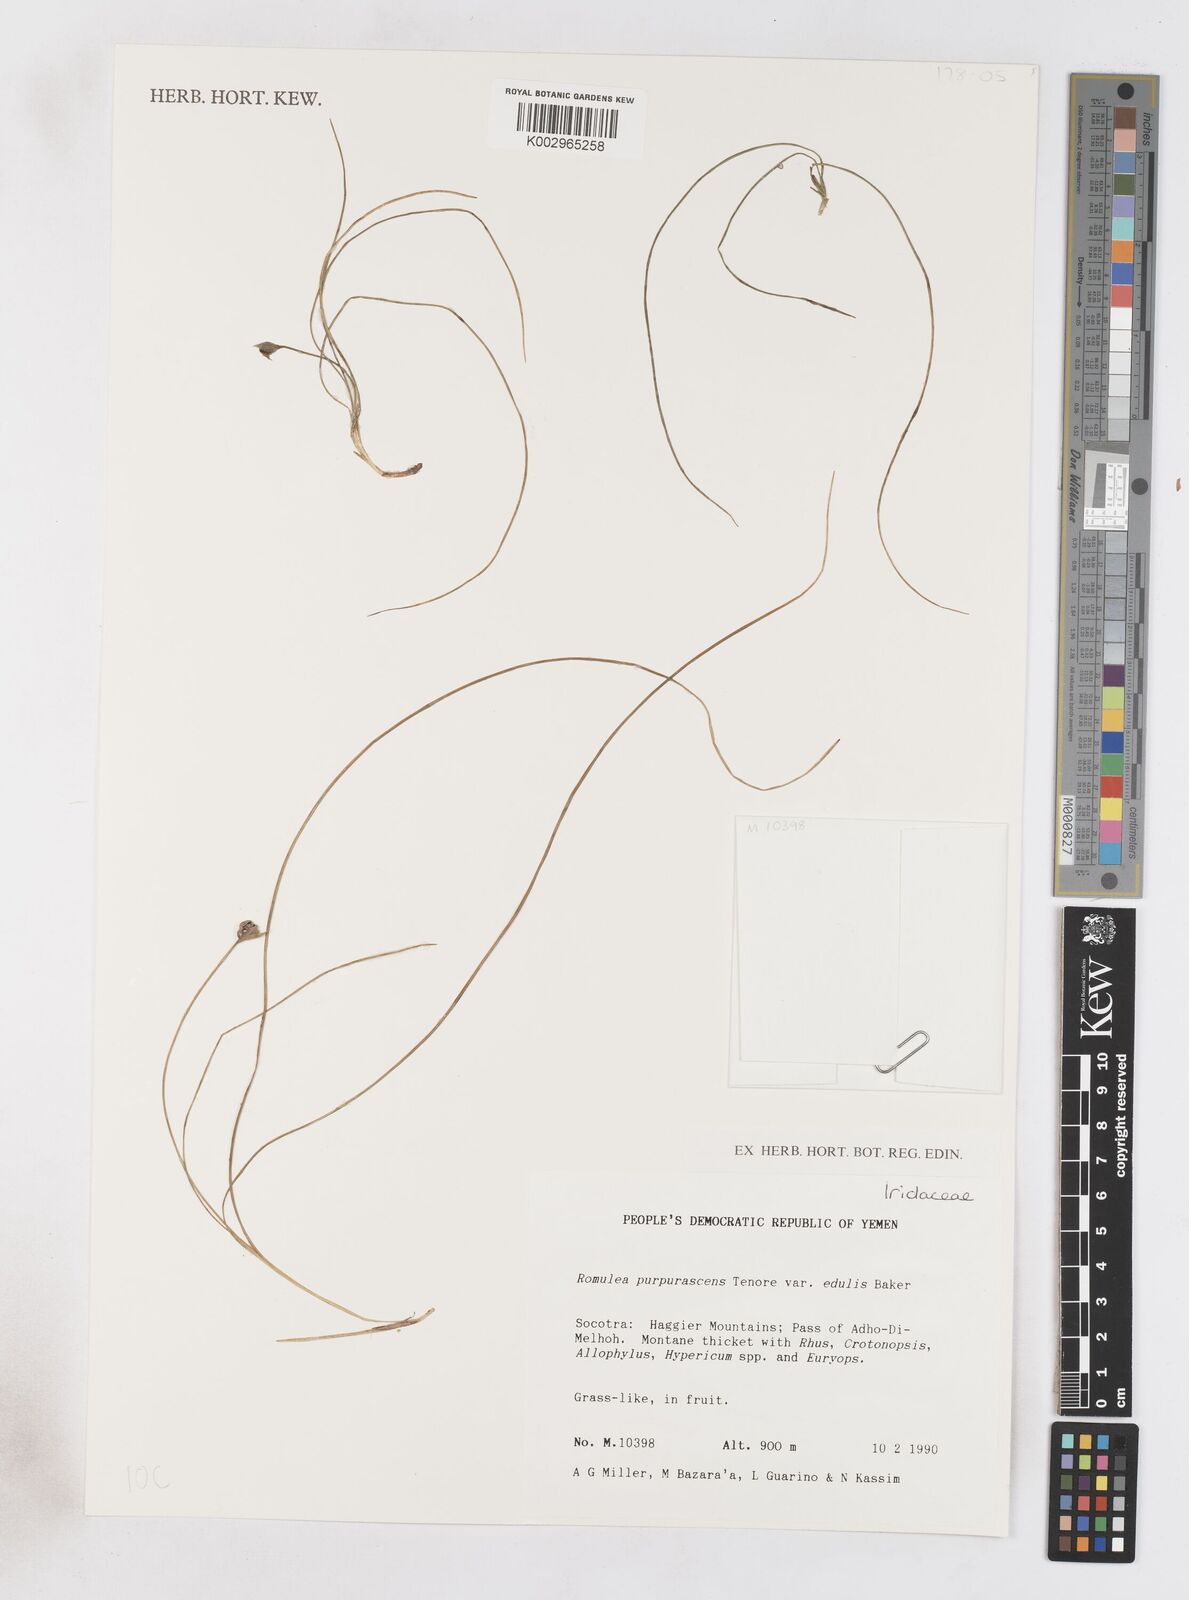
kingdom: Plantae
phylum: Tracheophyta
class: Liliopsida
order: Asparagales
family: Iridaceae
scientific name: Iridaceae
